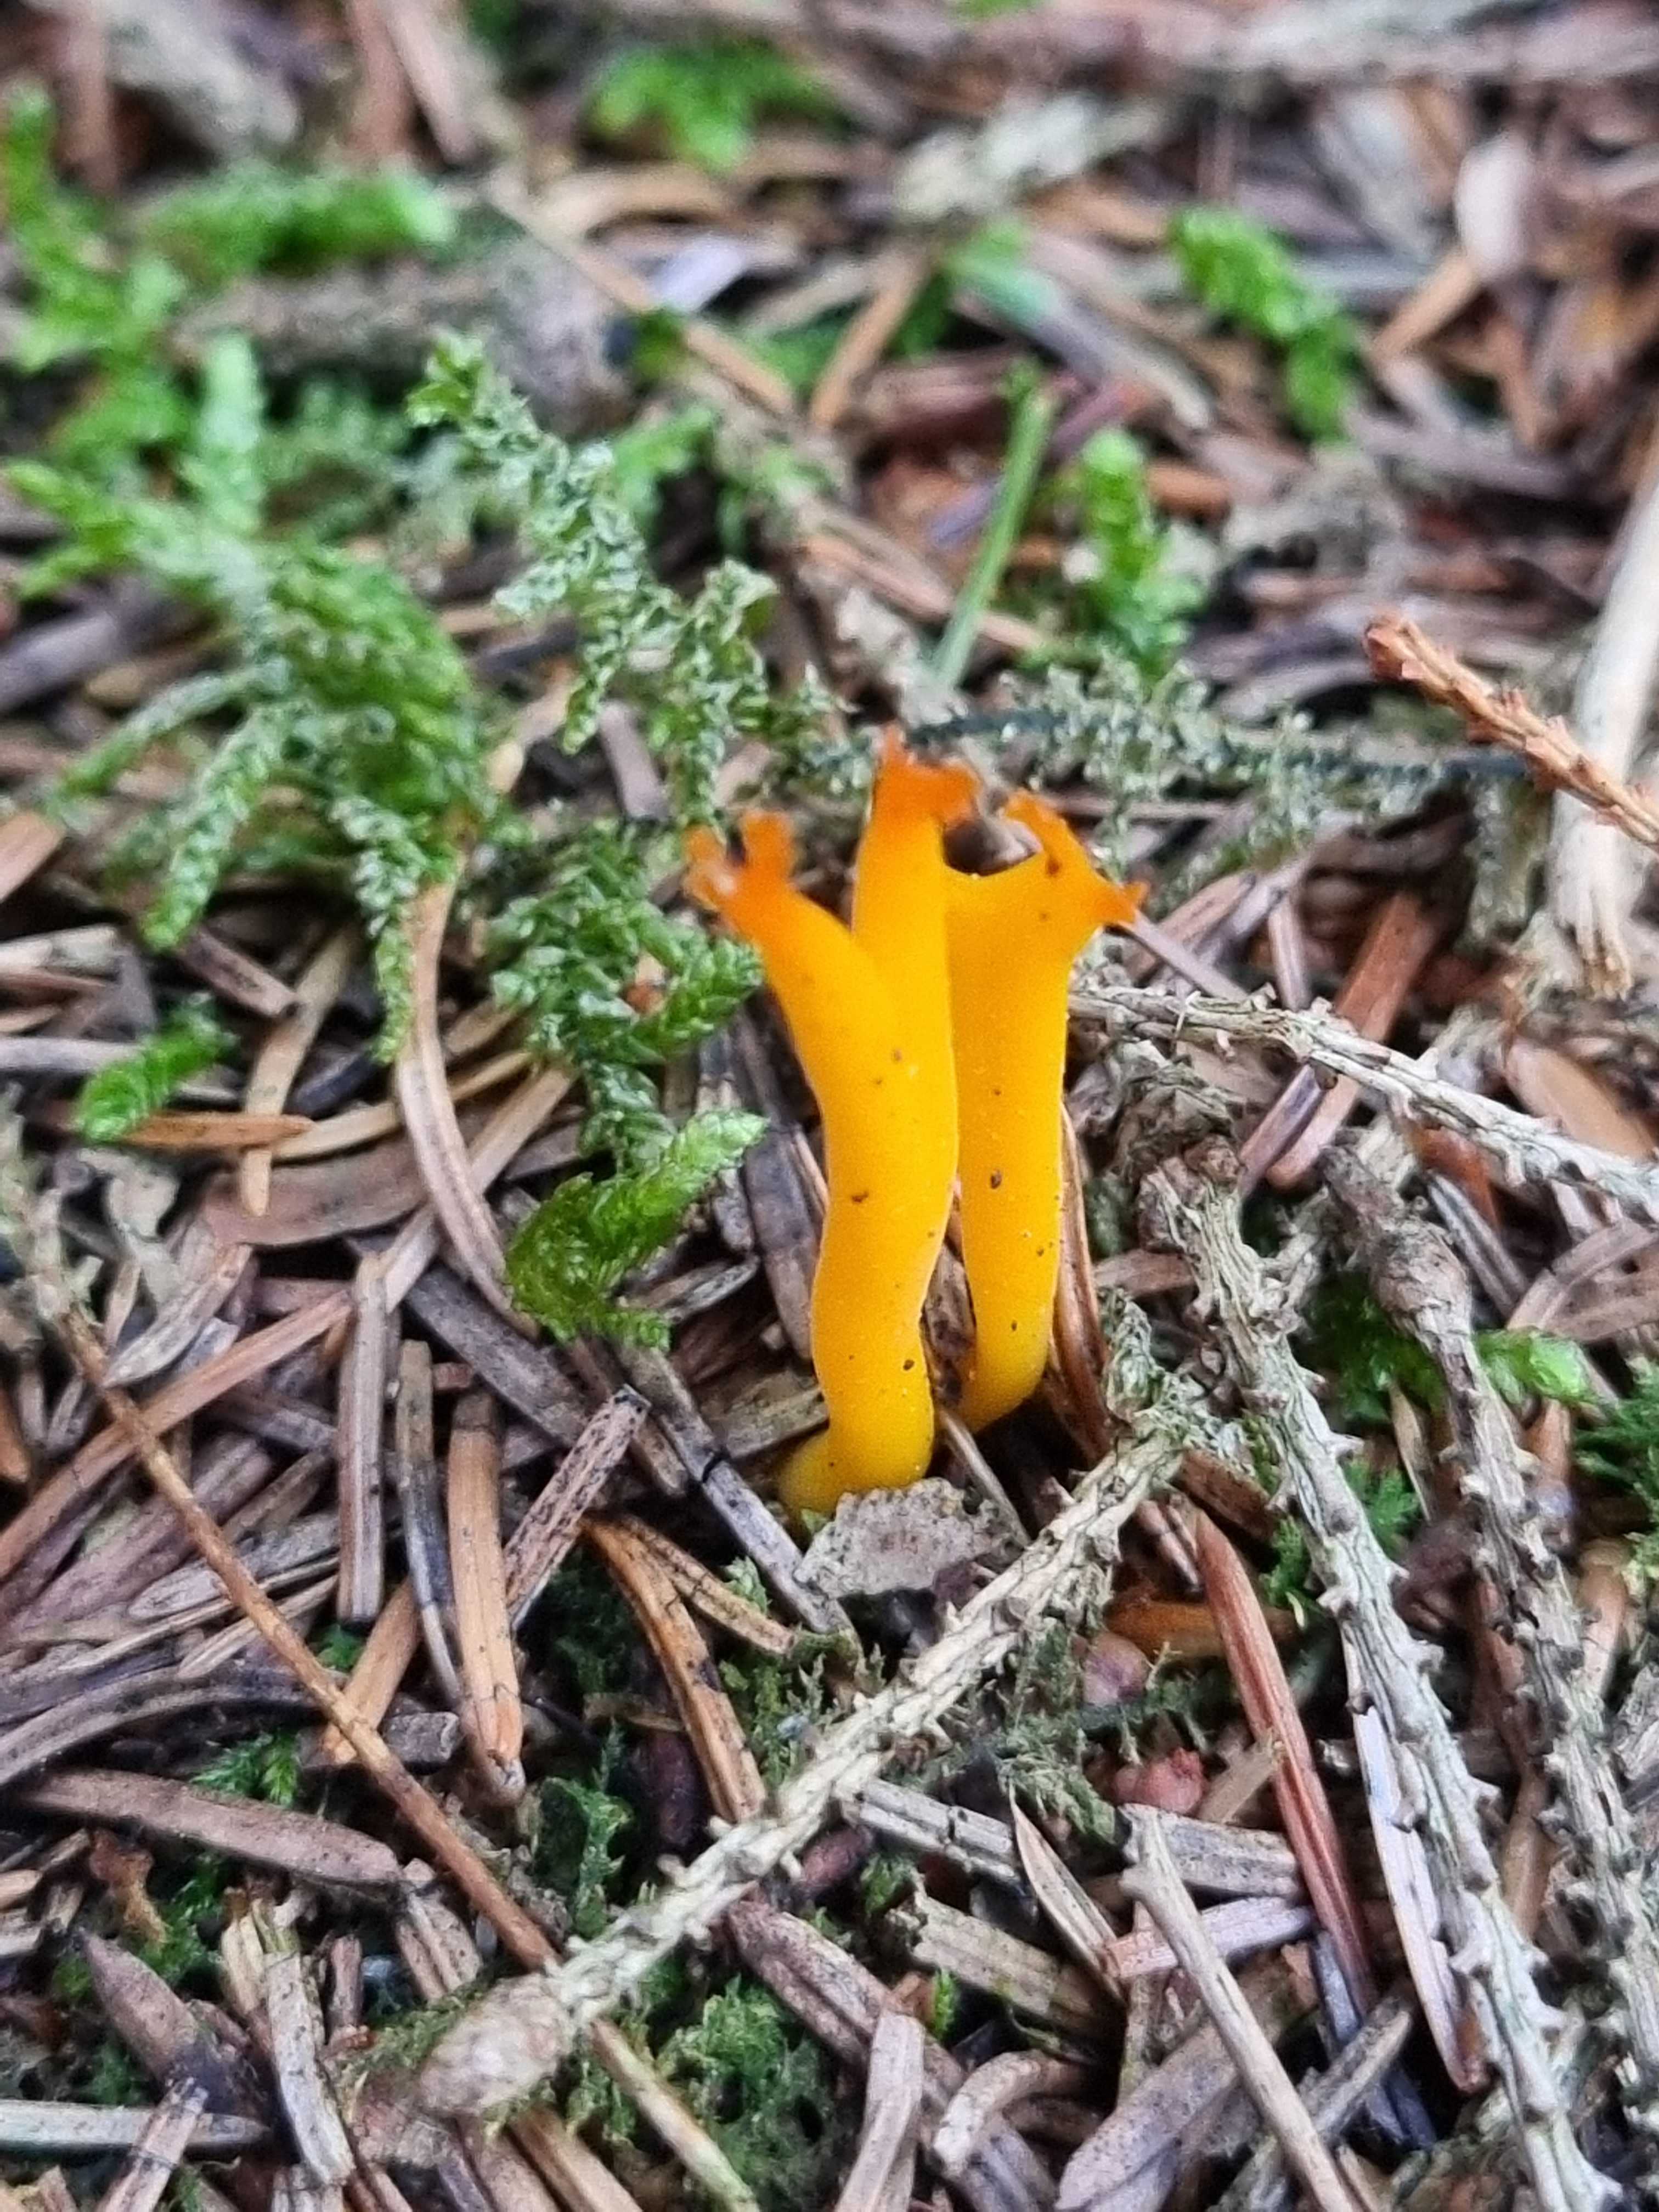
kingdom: Fungi
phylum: Basidiomycota
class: Dacrymycetes
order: Dacrymycetales
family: Dacrymycetaceae
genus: Calocera
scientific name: Calocera viscosa
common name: almindelig guldgaffel
